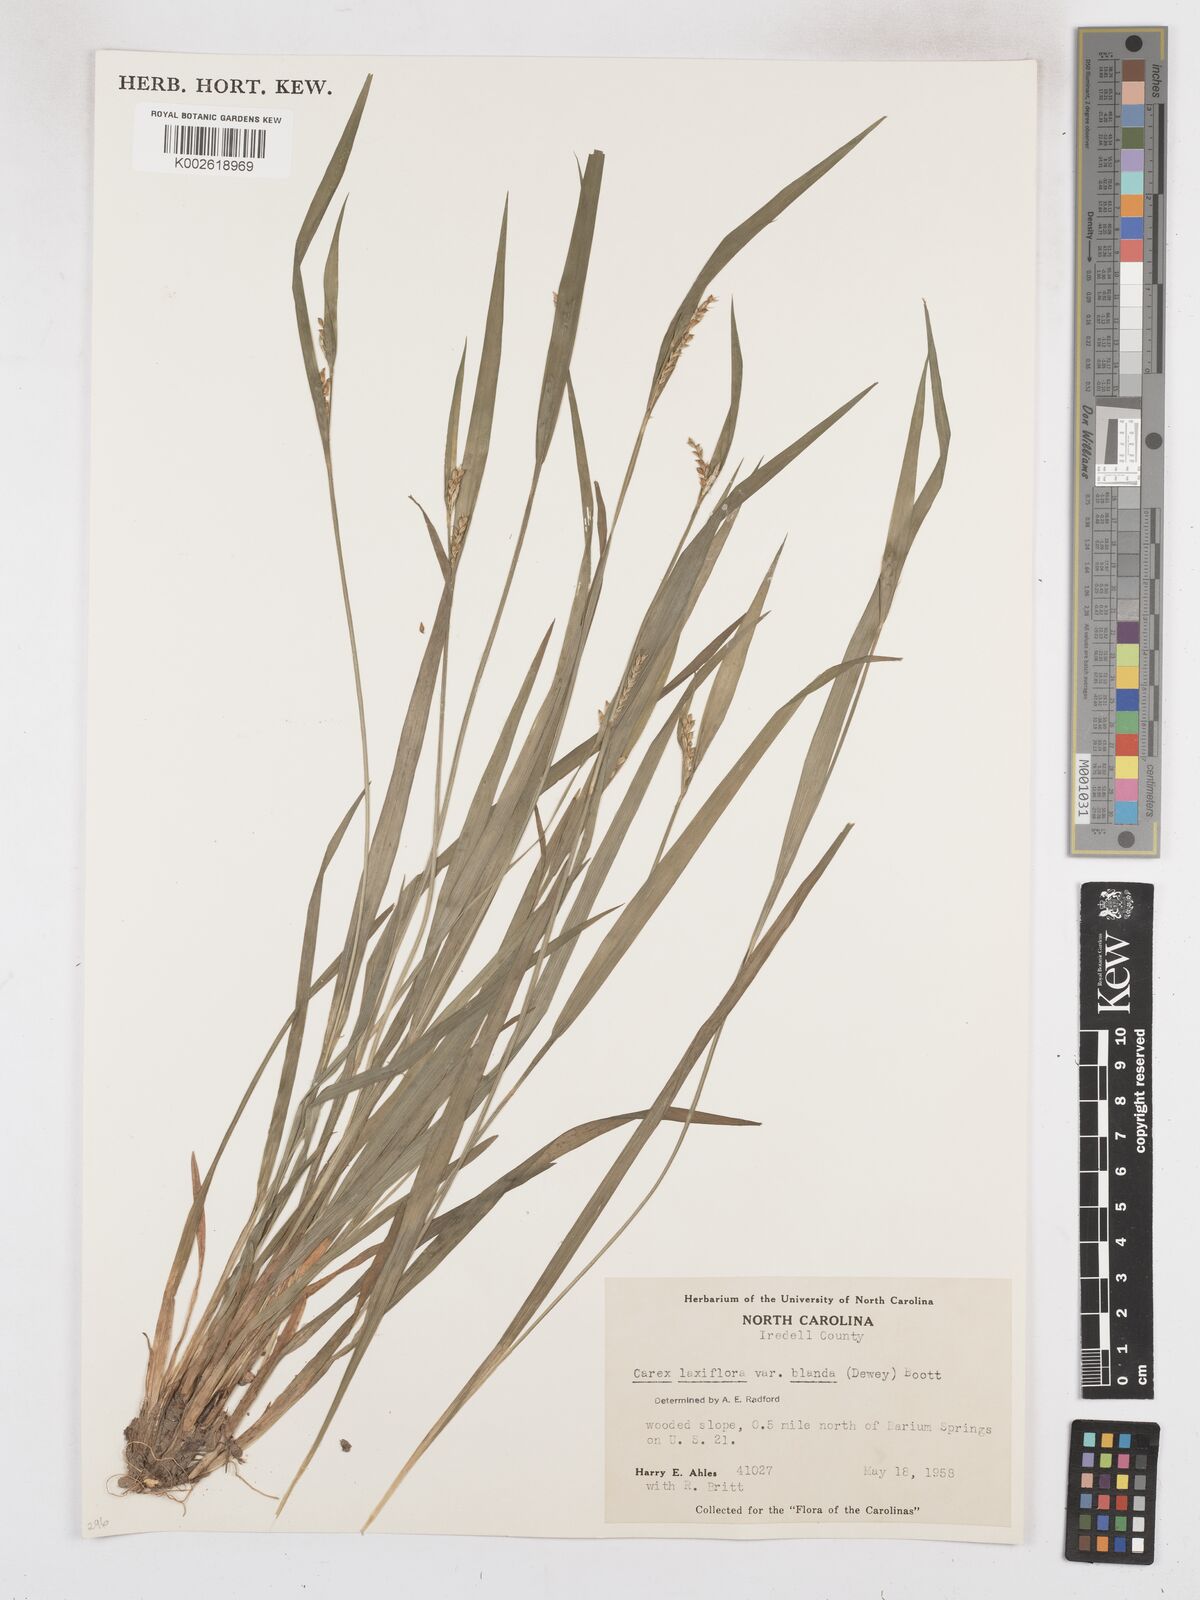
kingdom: Plantae
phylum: Tracheophyta
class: Liliopsida
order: Poales
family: Cyperaceae
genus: Carex
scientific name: Carex laxiflora
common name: Beech wood sedge
